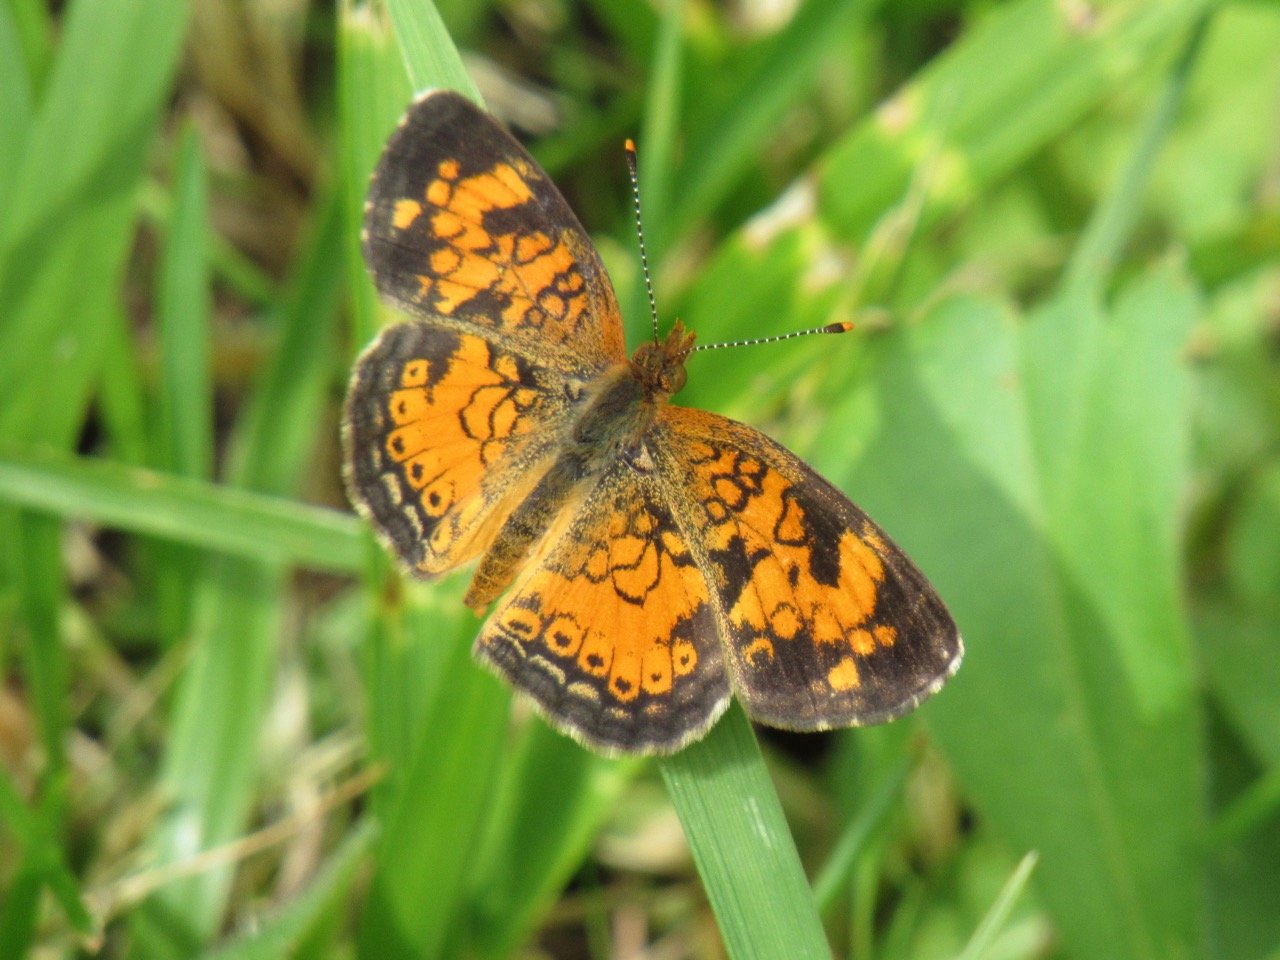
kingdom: Animalia
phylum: Arthropoda
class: Insecta
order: Lepidoptera
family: Nymphalidae
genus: Phyciodes
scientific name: Phyciodes tharos
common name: Pearl Crescent
